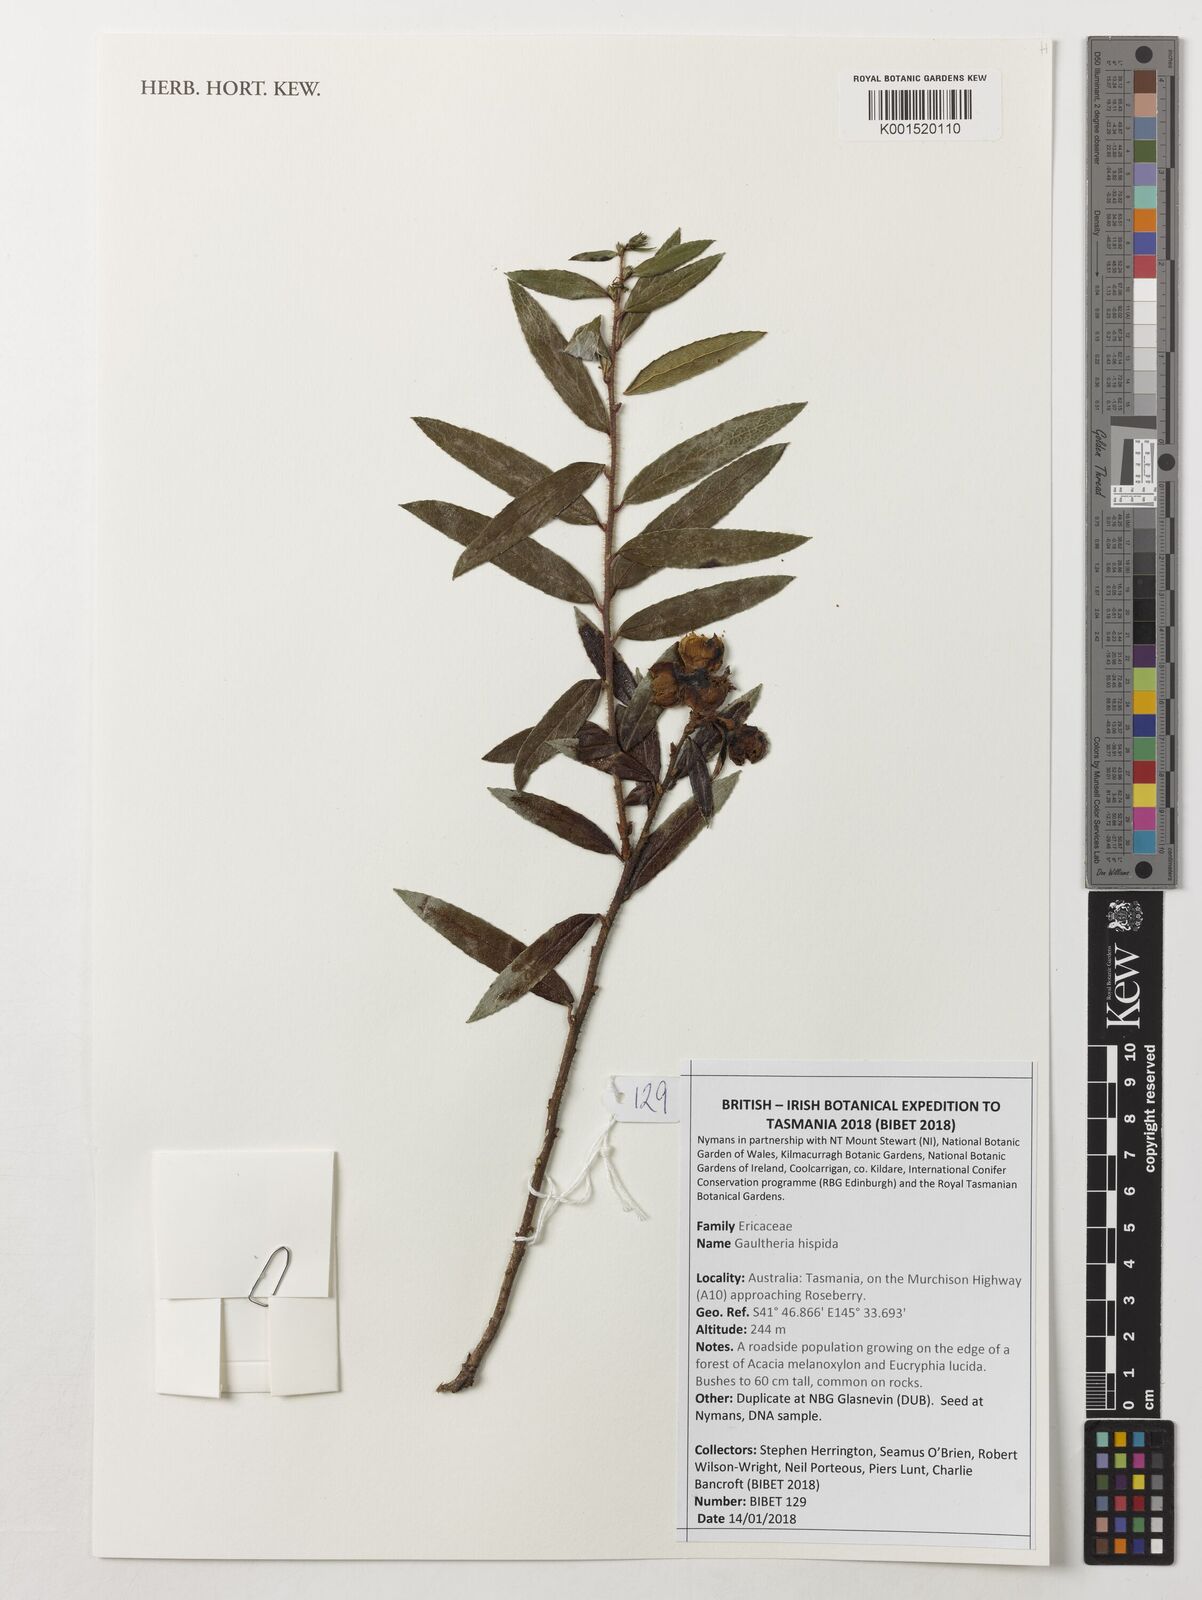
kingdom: Plantae
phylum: Tracheophyta
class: Magnoliopsida
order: Ericales
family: Ericaceae
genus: Gaultheria
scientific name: Gaultheria hispida
